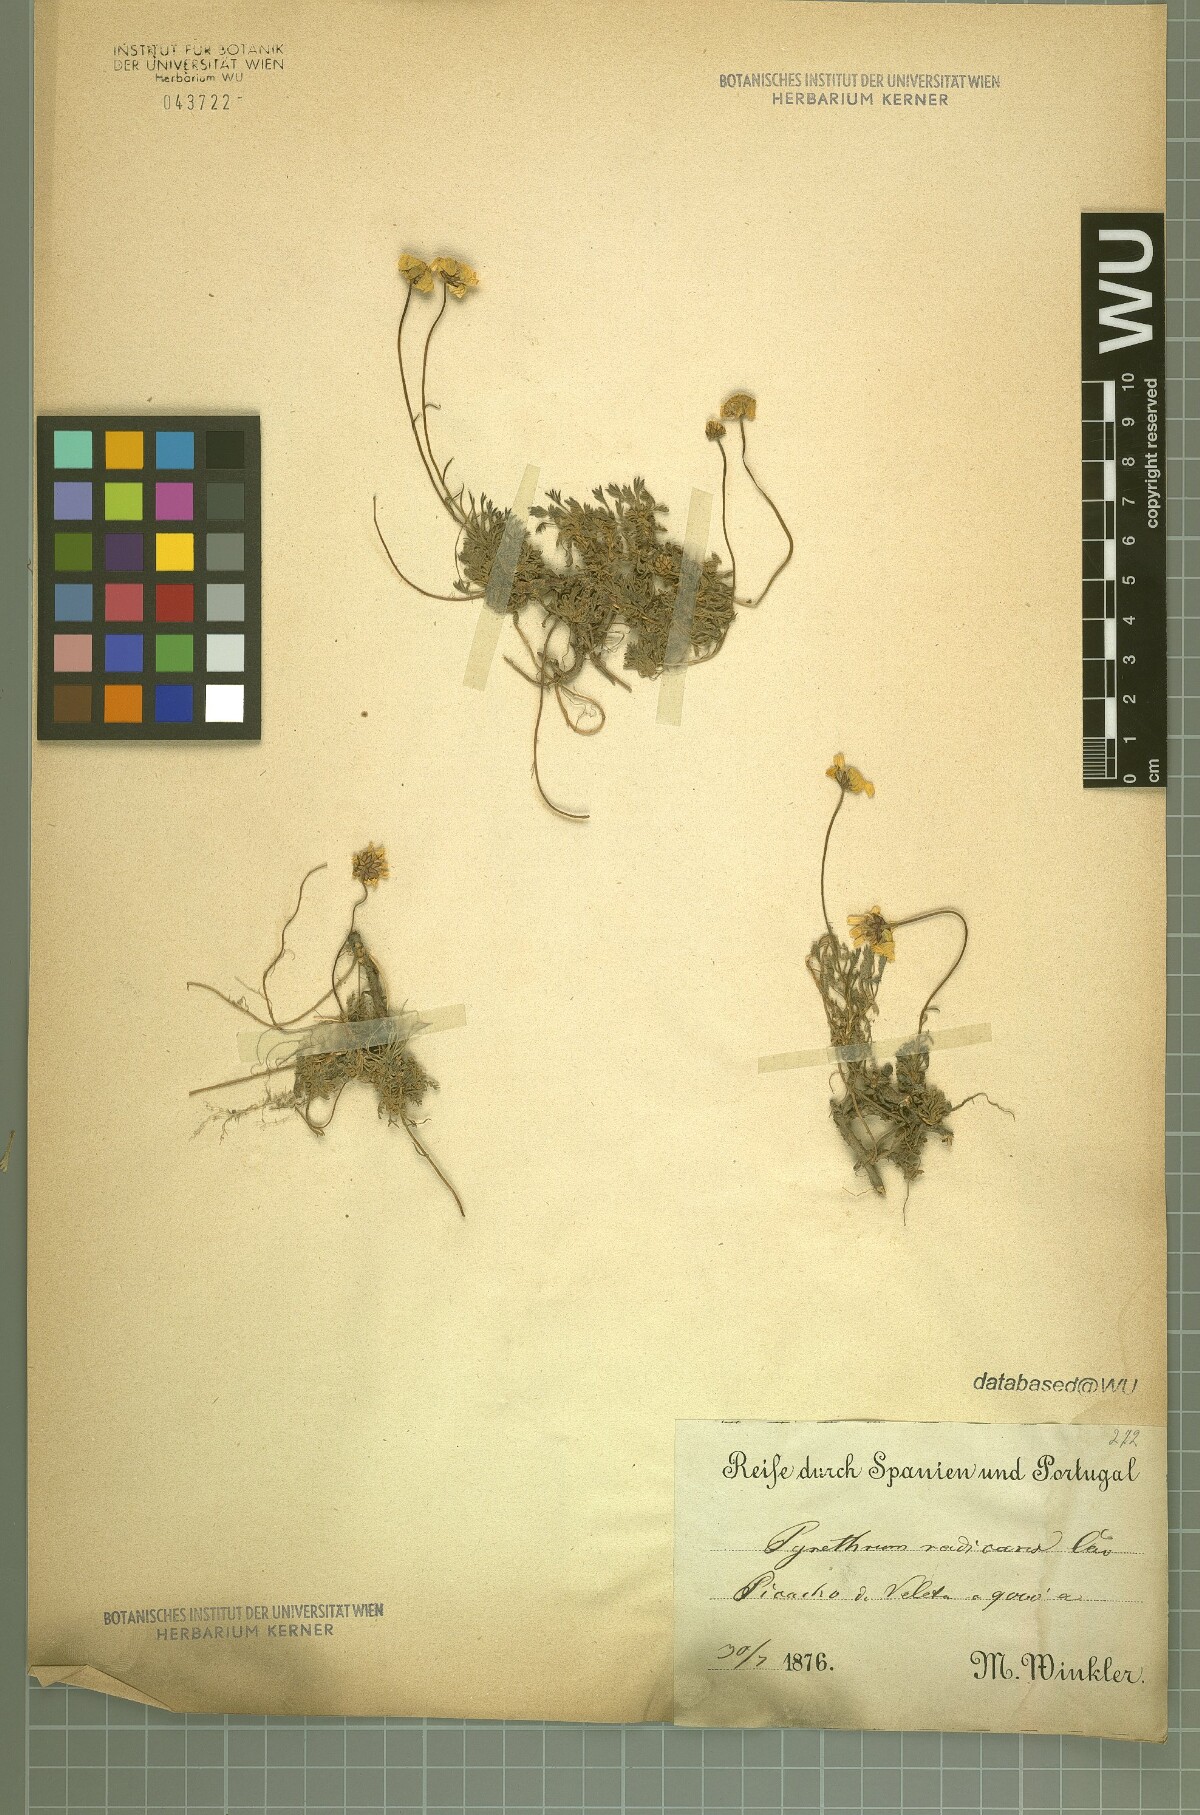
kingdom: Plantae
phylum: Tracheophyta
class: Magnoliopsida
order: Asterales
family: Asteraceae
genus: Leucanthemopsis
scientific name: Leucanthemopsis pectinata
